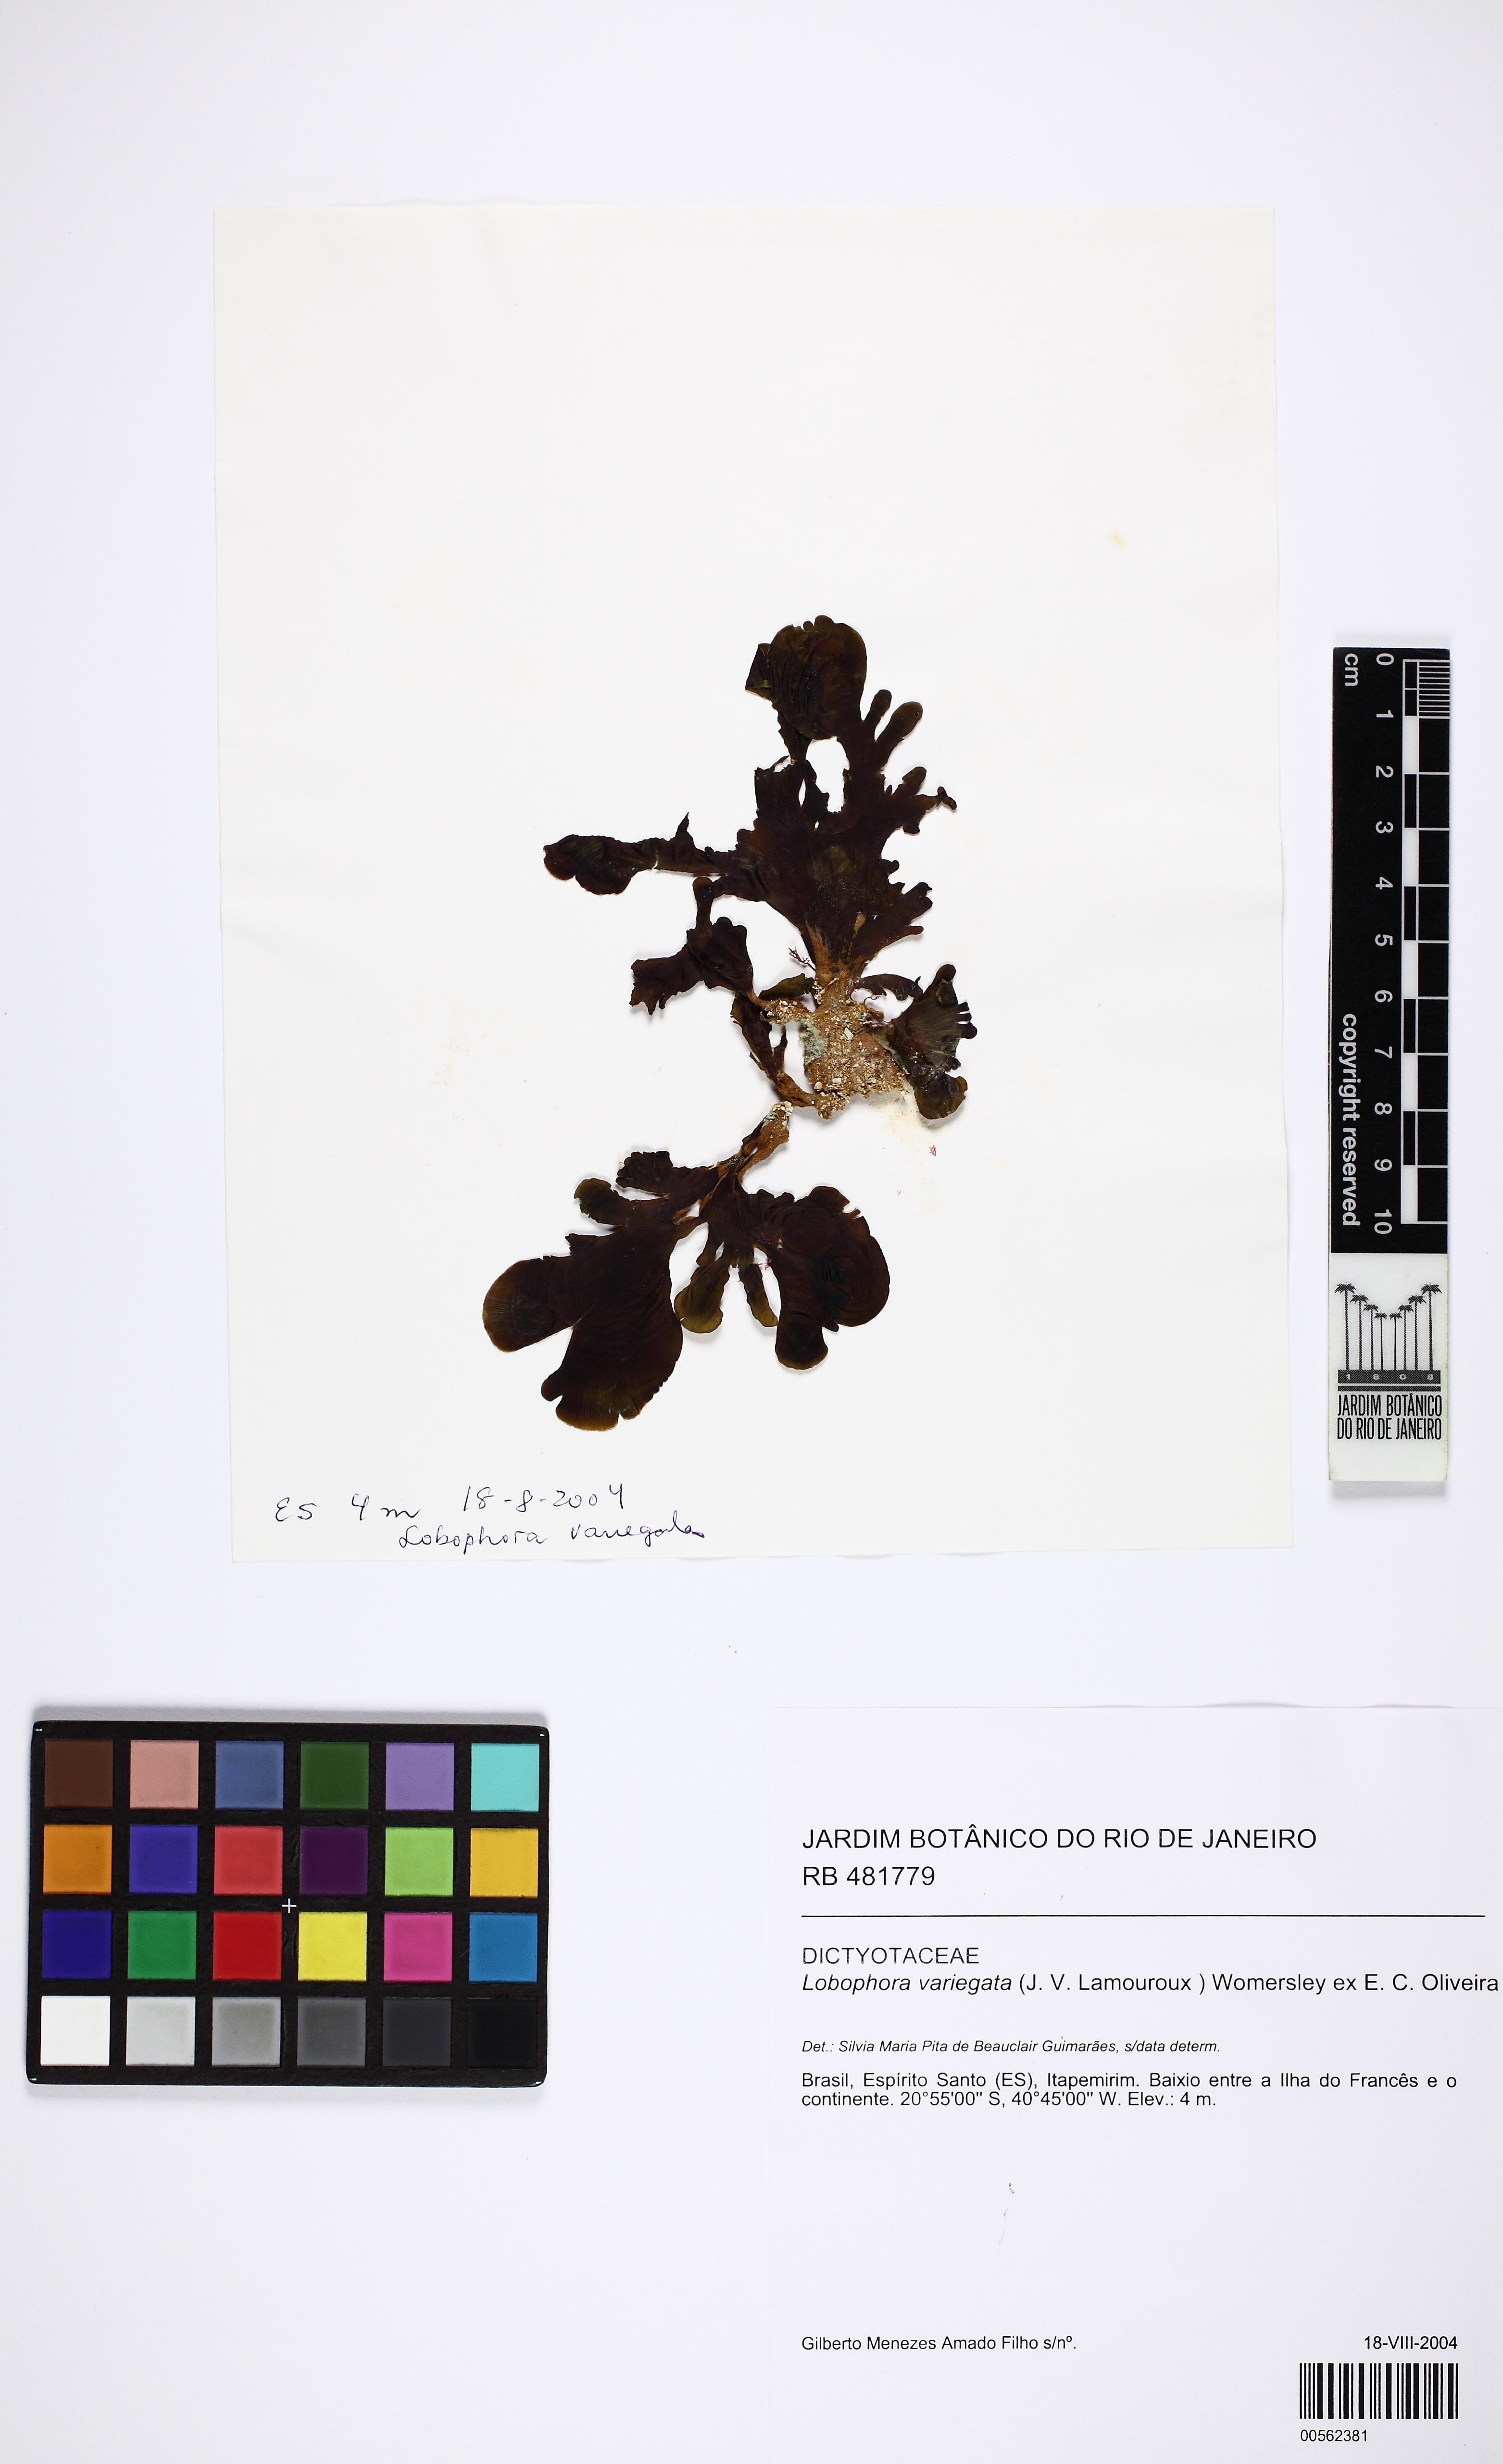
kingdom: Chromista
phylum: Ochrophyta
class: Phaeophyceae
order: Dictyotales
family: Dictyotaceae
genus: Lobophora
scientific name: Lobophora variegata
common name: Encrusting fan-leaf algae
